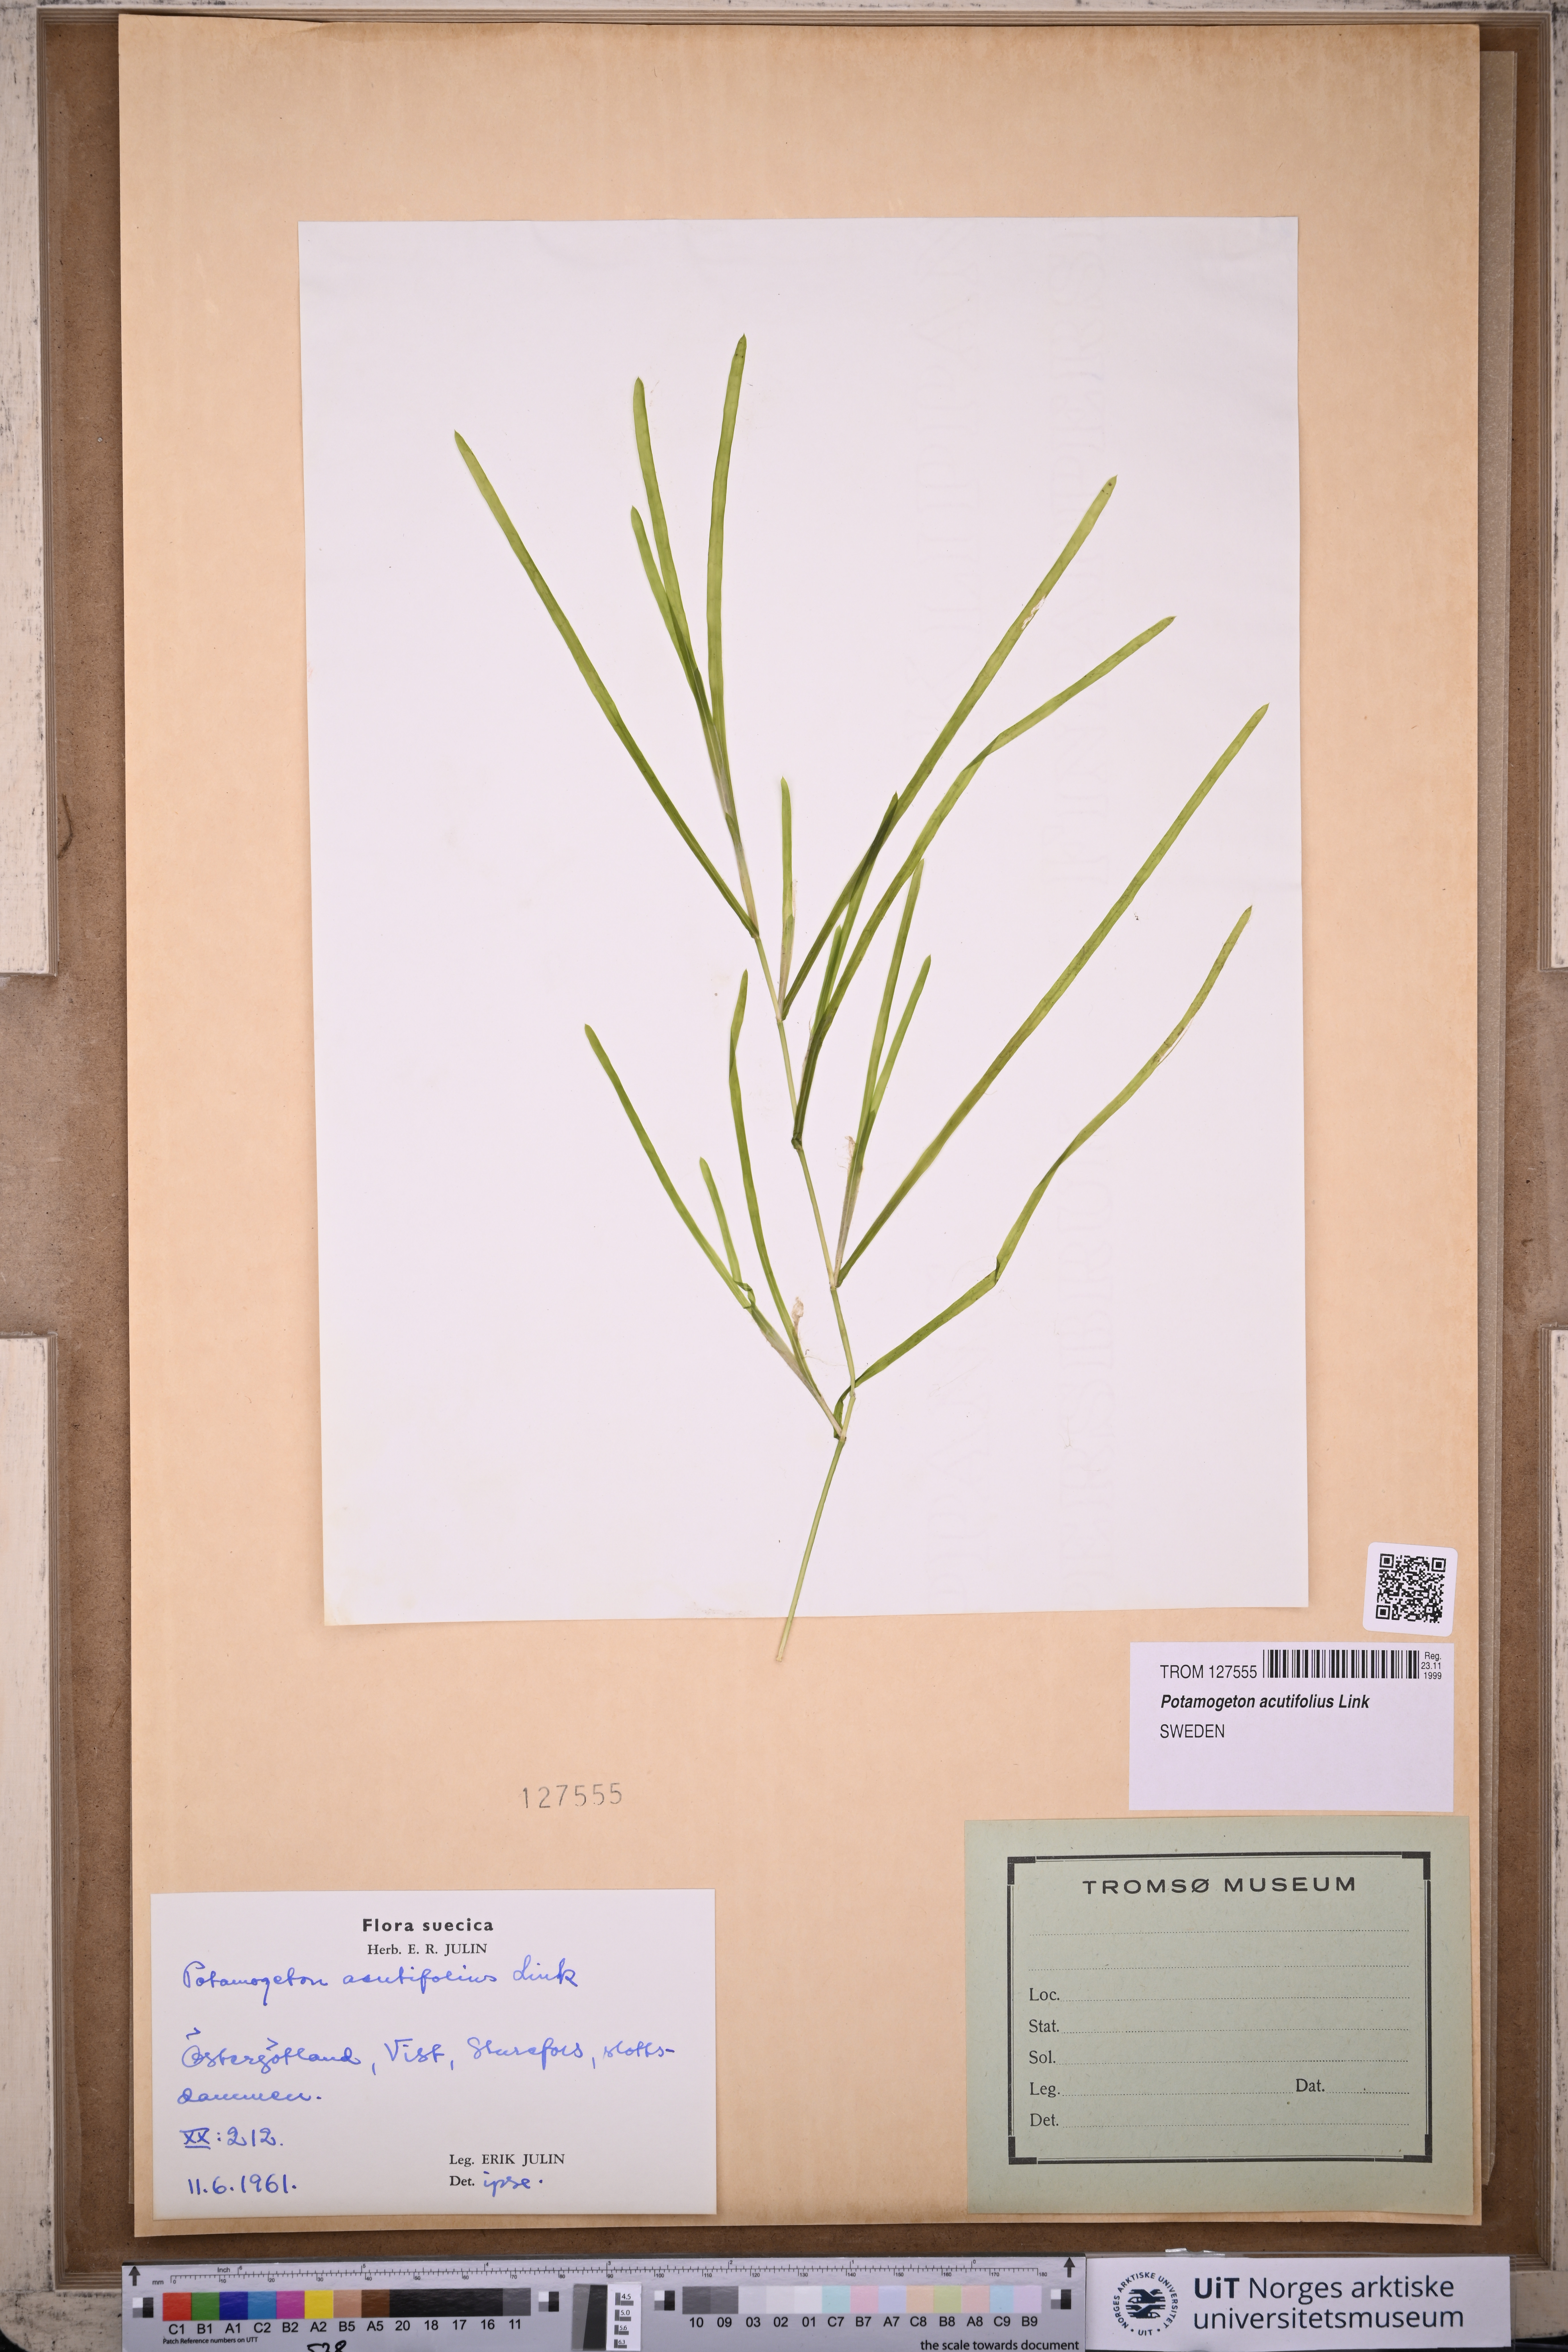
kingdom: Plantae
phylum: Tracheophyta
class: Liliopsida
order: Alismatales
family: Potamogetonaceae
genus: Potamogeton
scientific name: Potamogeton acutifolius
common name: Sharp-leaved pondweed
